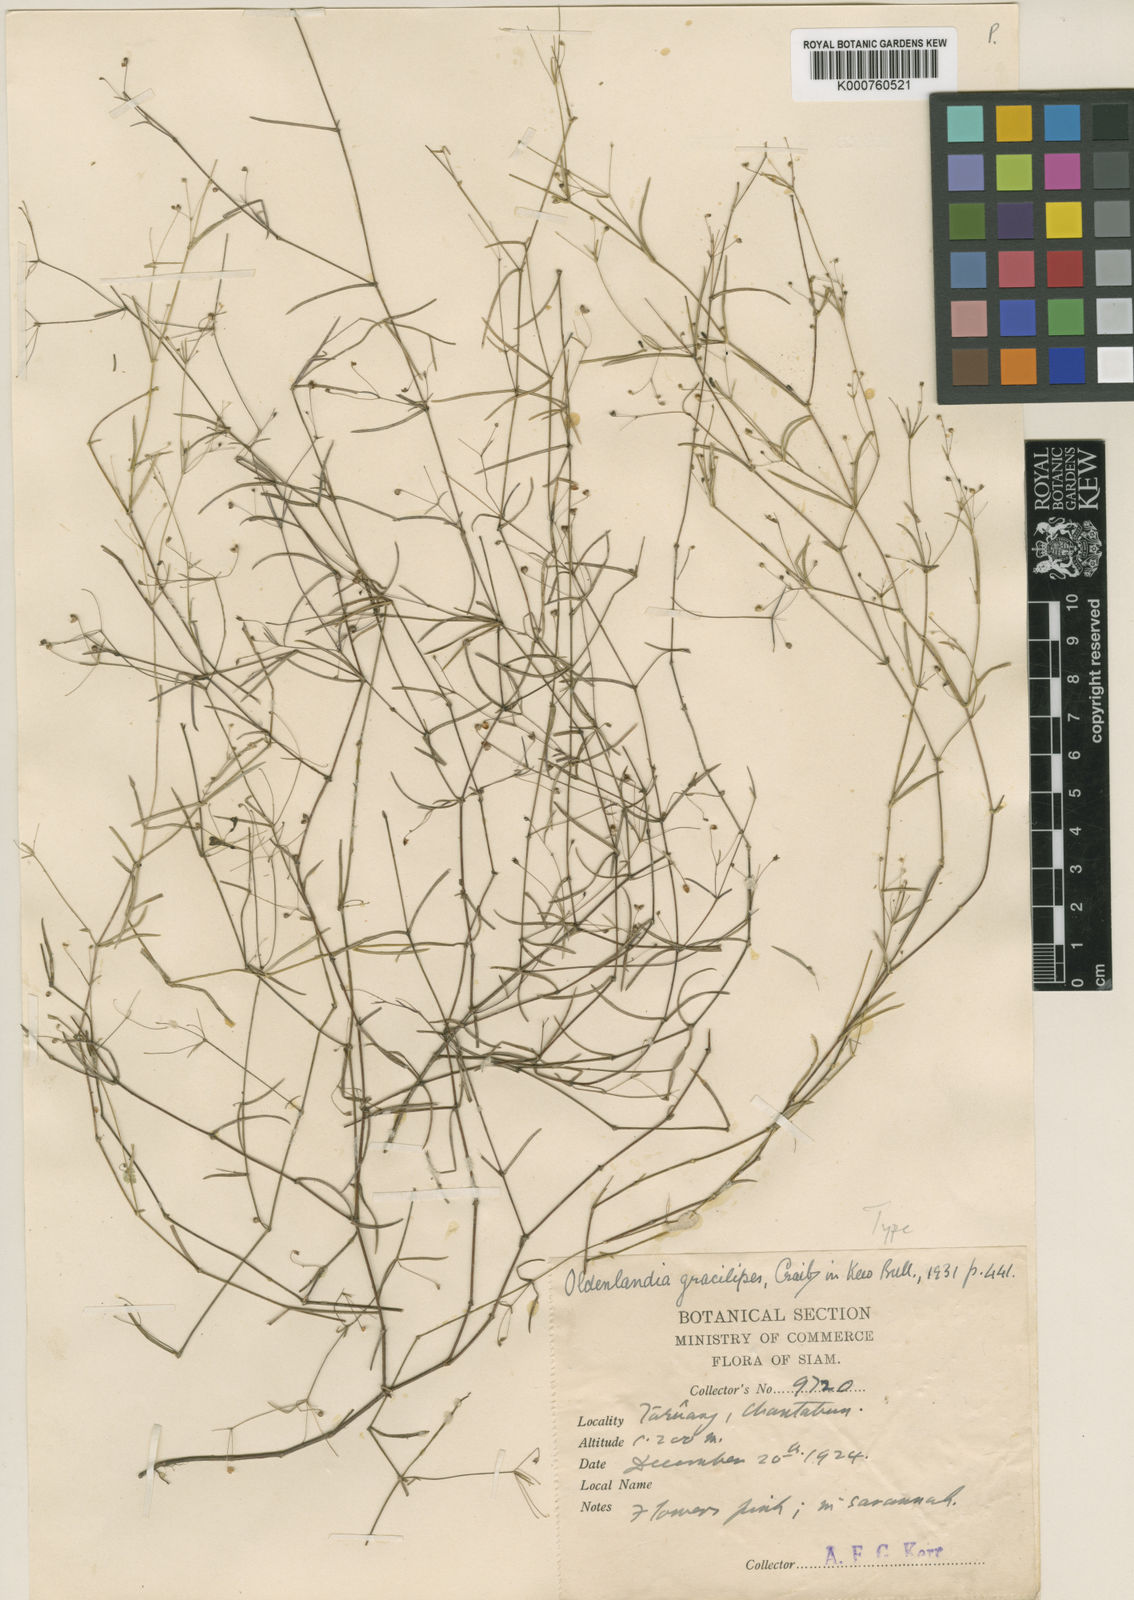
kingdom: Plantae
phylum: Tracheophyta
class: Magnoliopsida
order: Gentianales
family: Rubiaceae
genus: Scleromitrion
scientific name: Scleromitrion gracilipes
